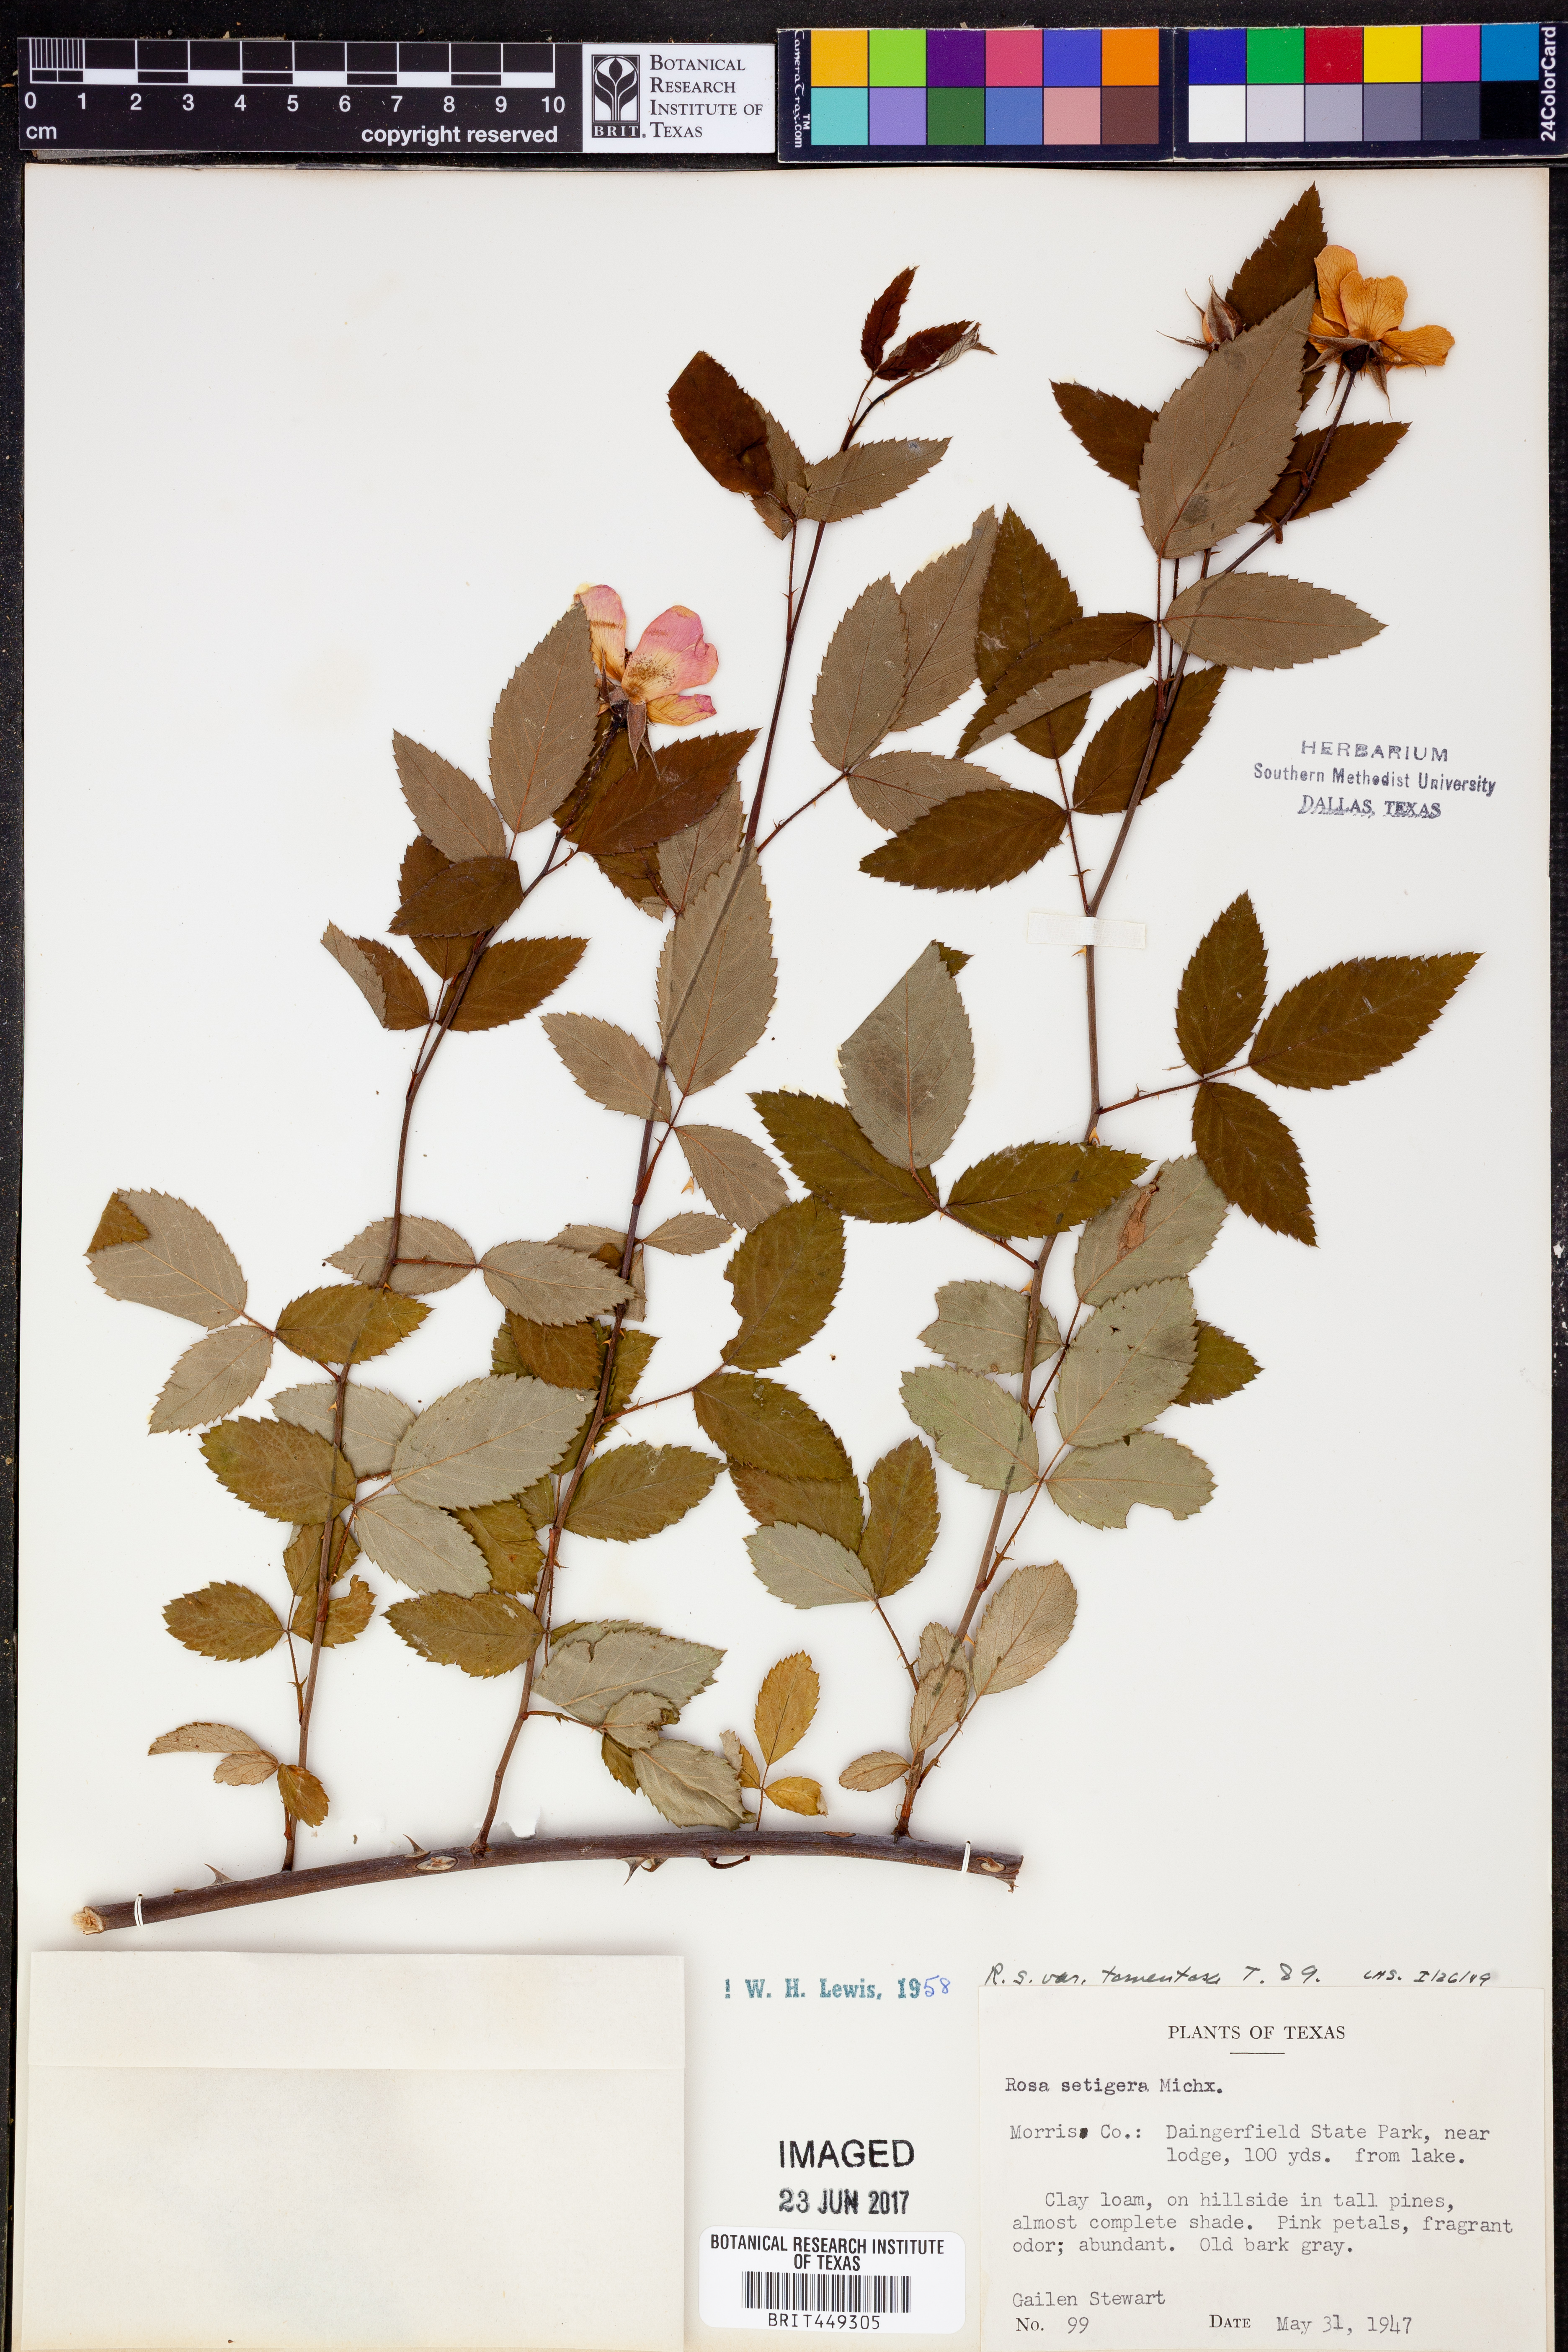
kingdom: Plantae
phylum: Tracheophyta
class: Magnoliopsida
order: Rosales
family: Rosaceae
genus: Rosa
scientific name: Rosa setigera
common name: Prairie rose
